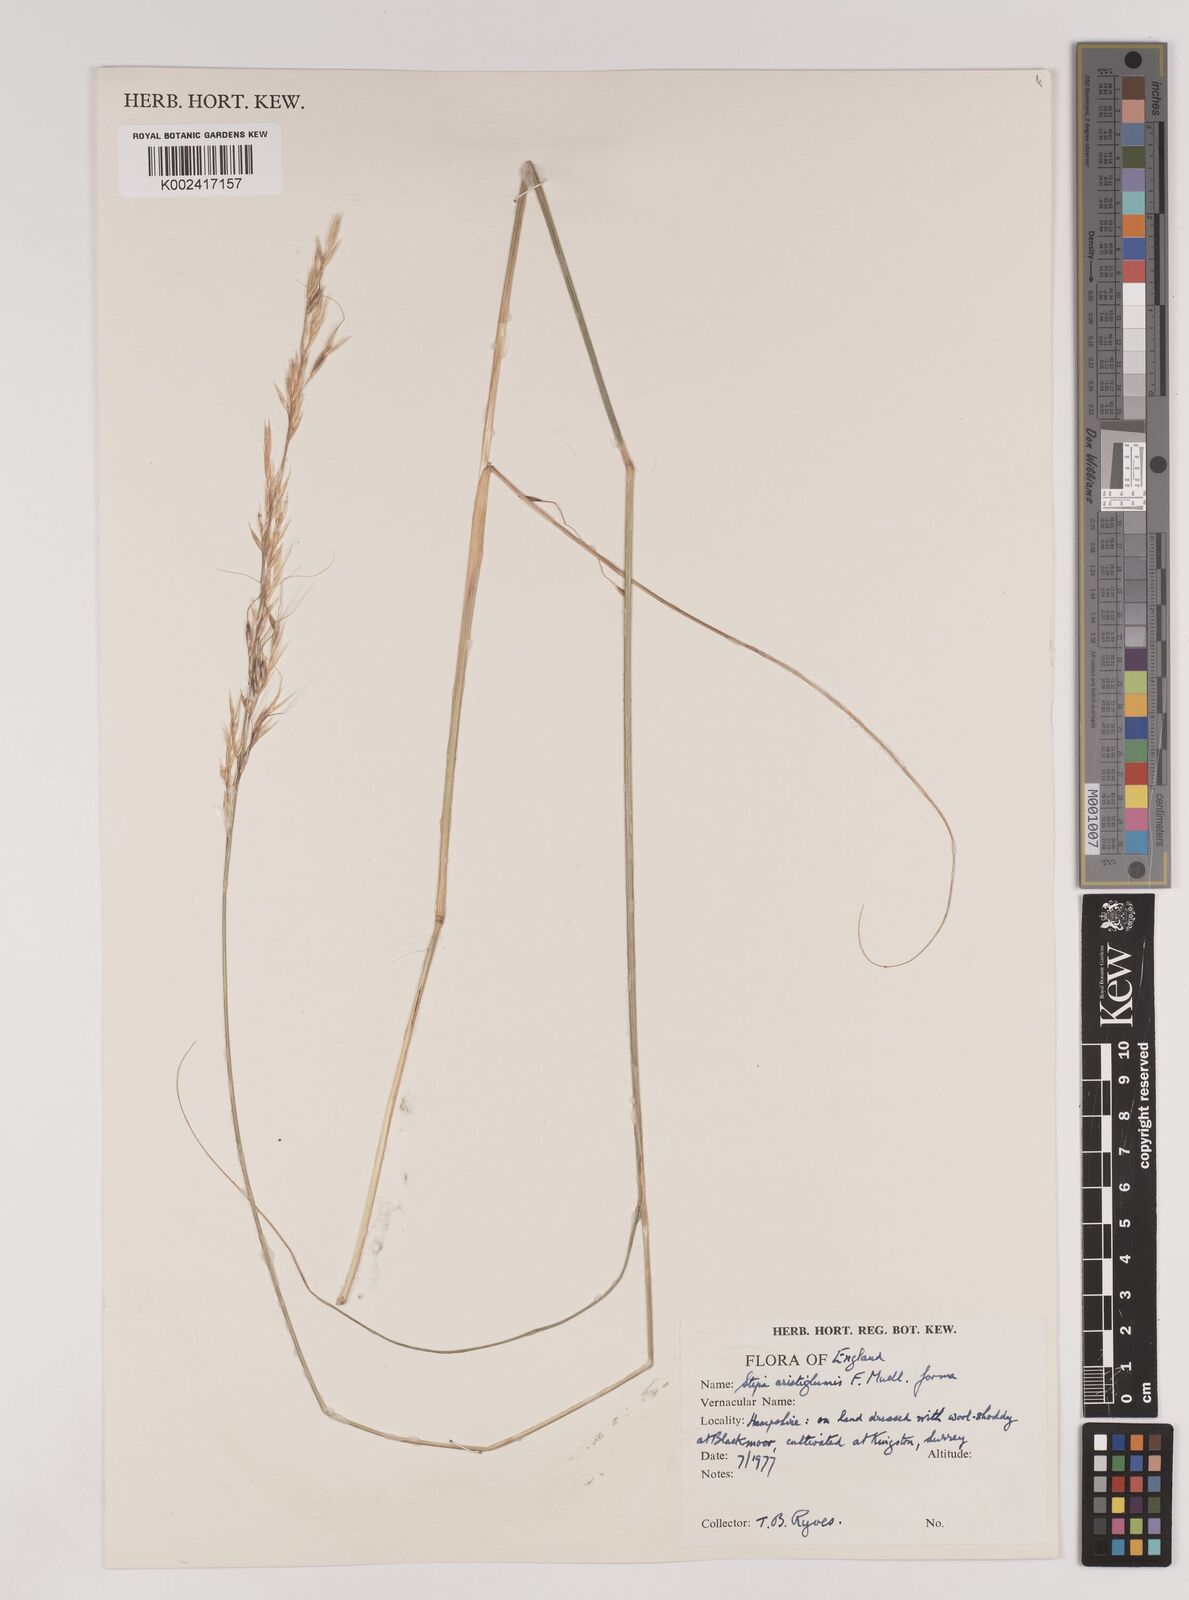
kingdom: Plantae
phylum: Tracheophyta
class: Liliopsida
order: Poales
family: Poaceae
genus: Austrostipa
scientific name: Austrostipa aristiglumis
